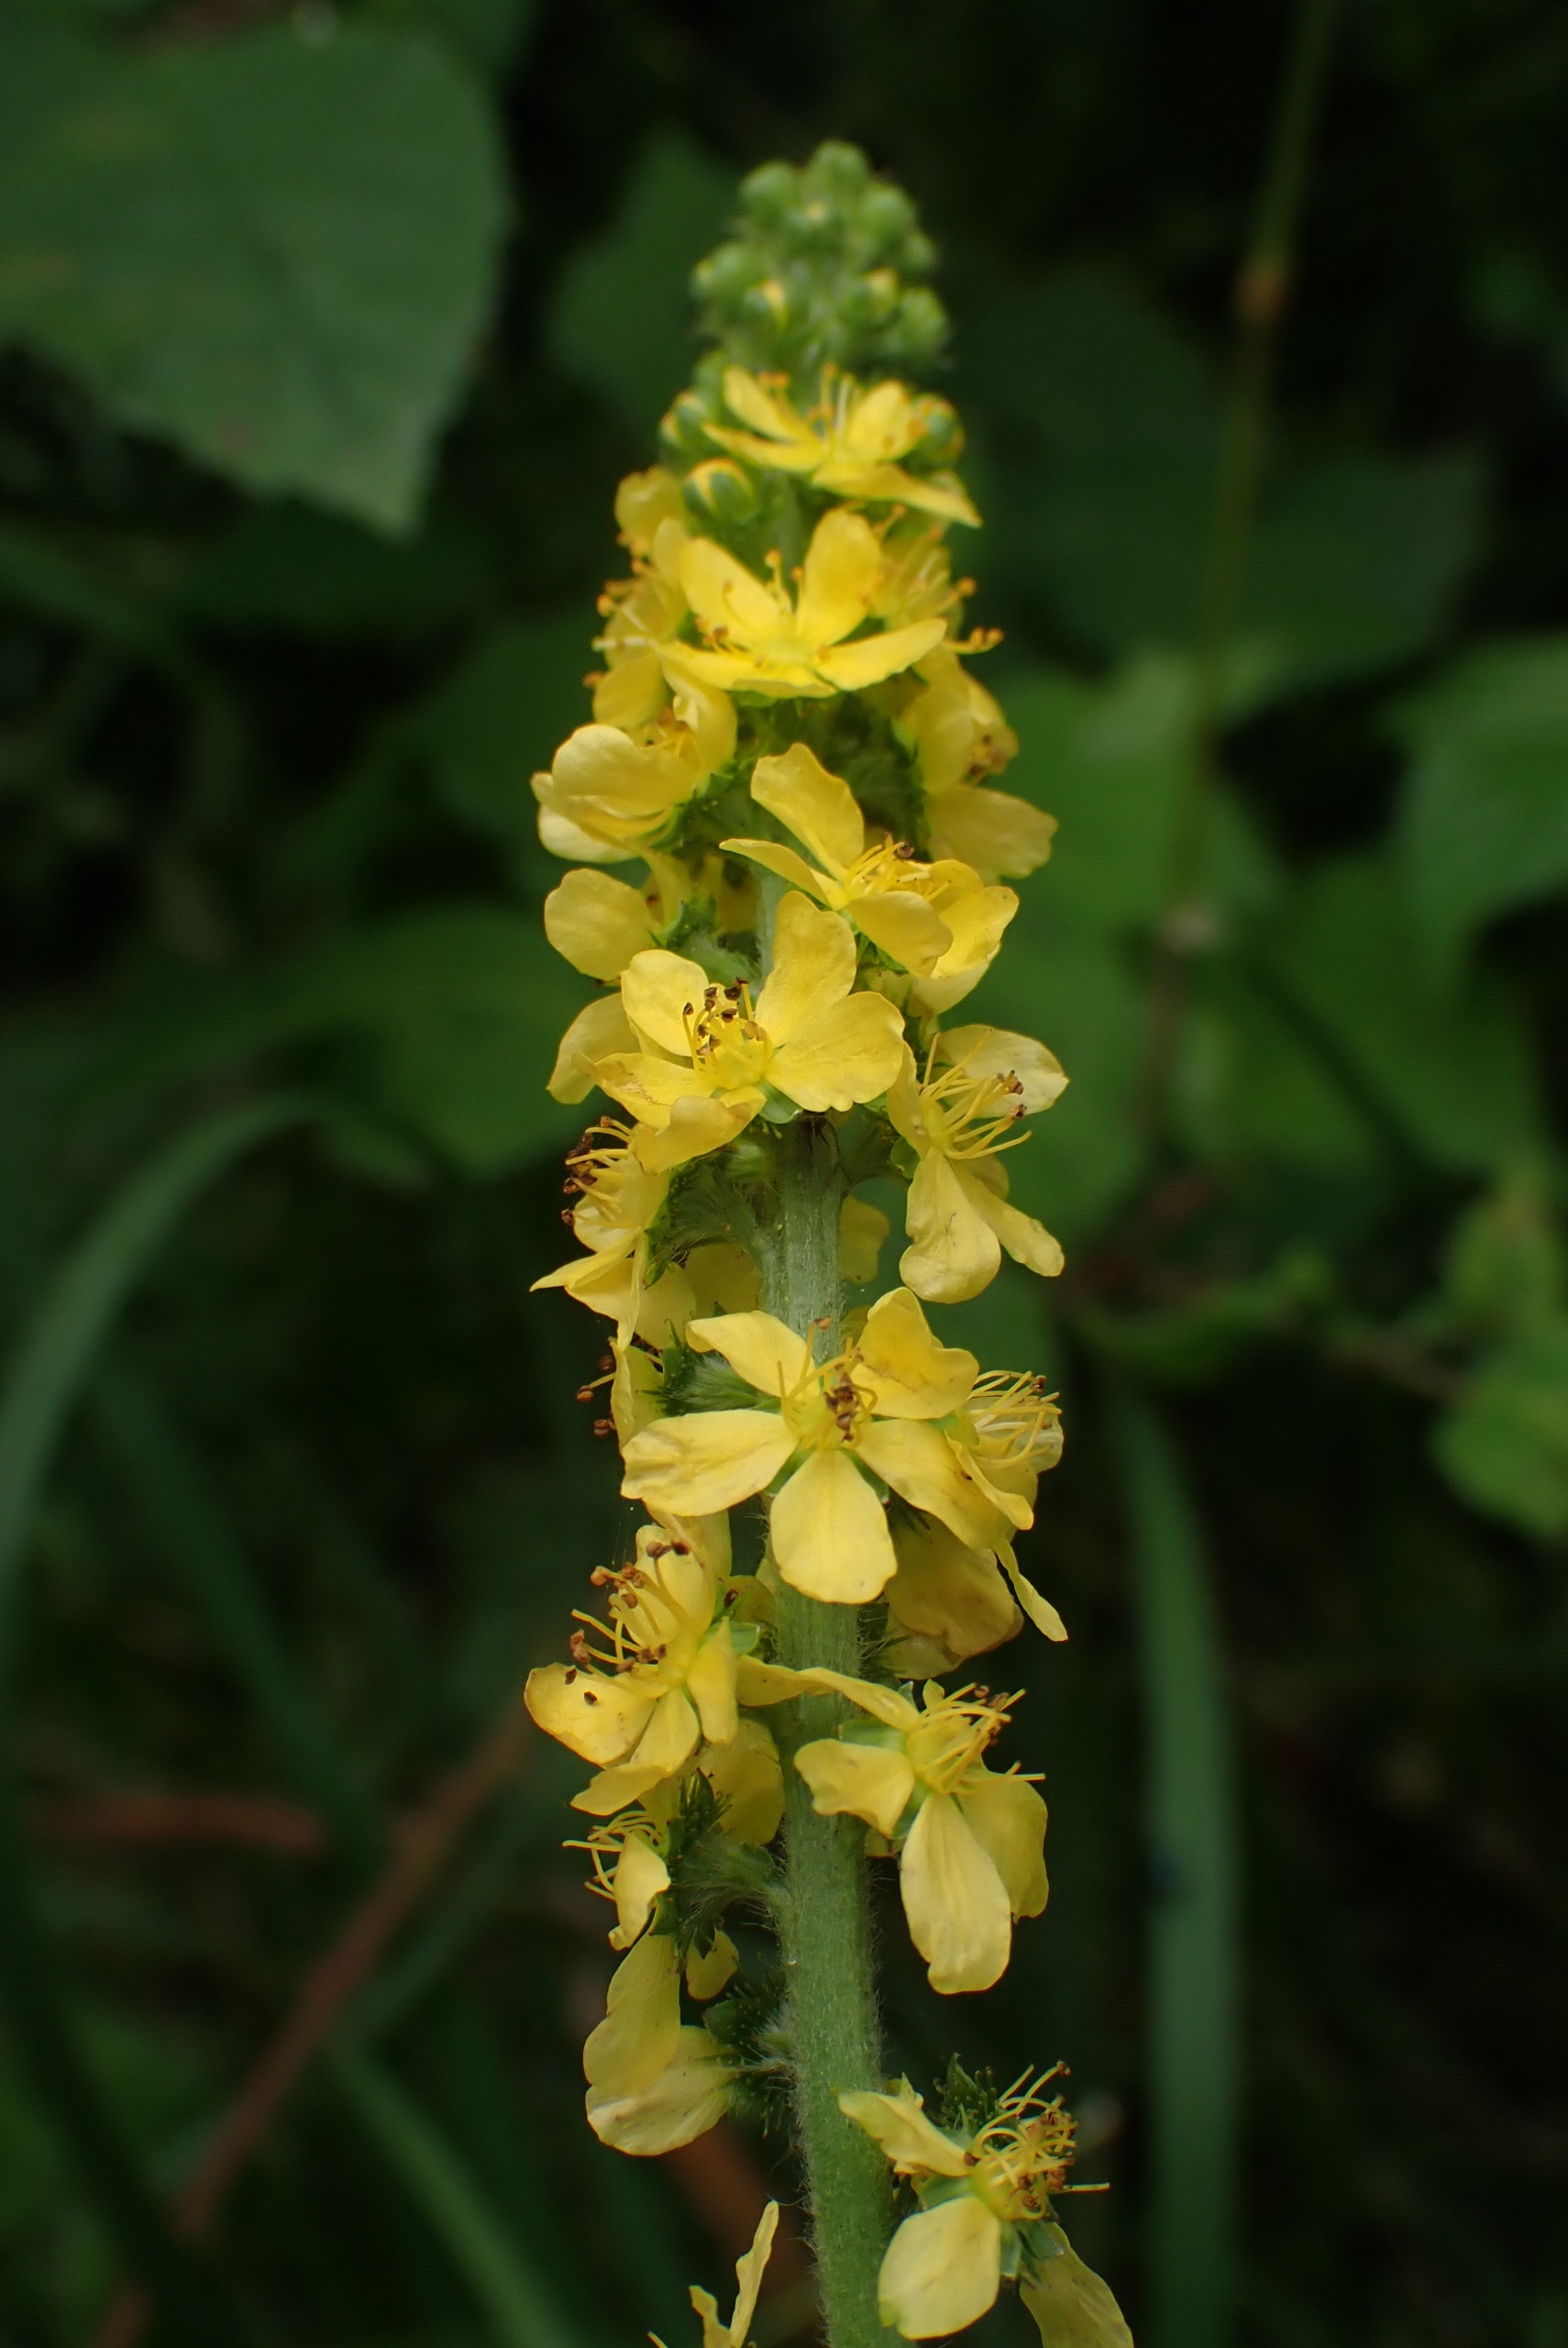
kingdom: Plantae
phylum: Tracheophyta
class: Magnoliopsida
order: Rosales
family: Rosaceae
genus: Agrimonia
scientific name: Agrimonia eupatoria
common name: Almindelig agermåne
